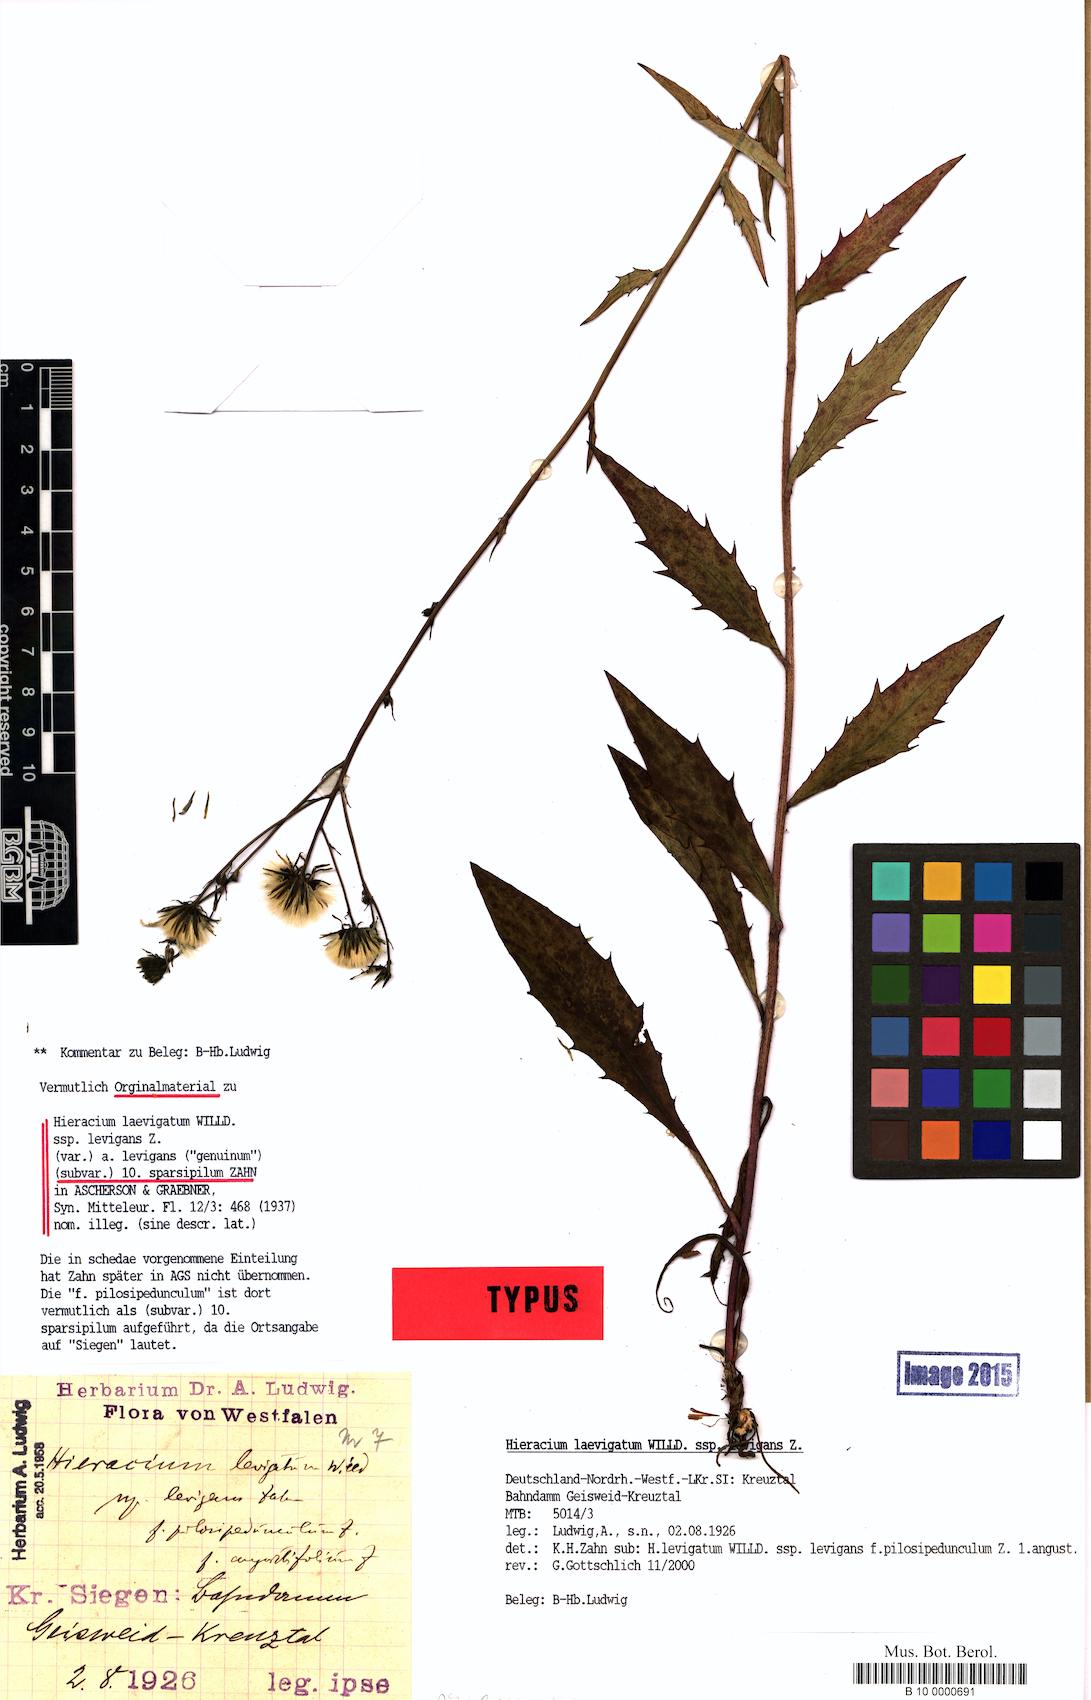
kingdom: Plantae
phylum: Tracheophyta
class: Magnoliopsida
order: Asterales
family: Asteraceae
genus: Hieracium
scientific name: Hieracium
